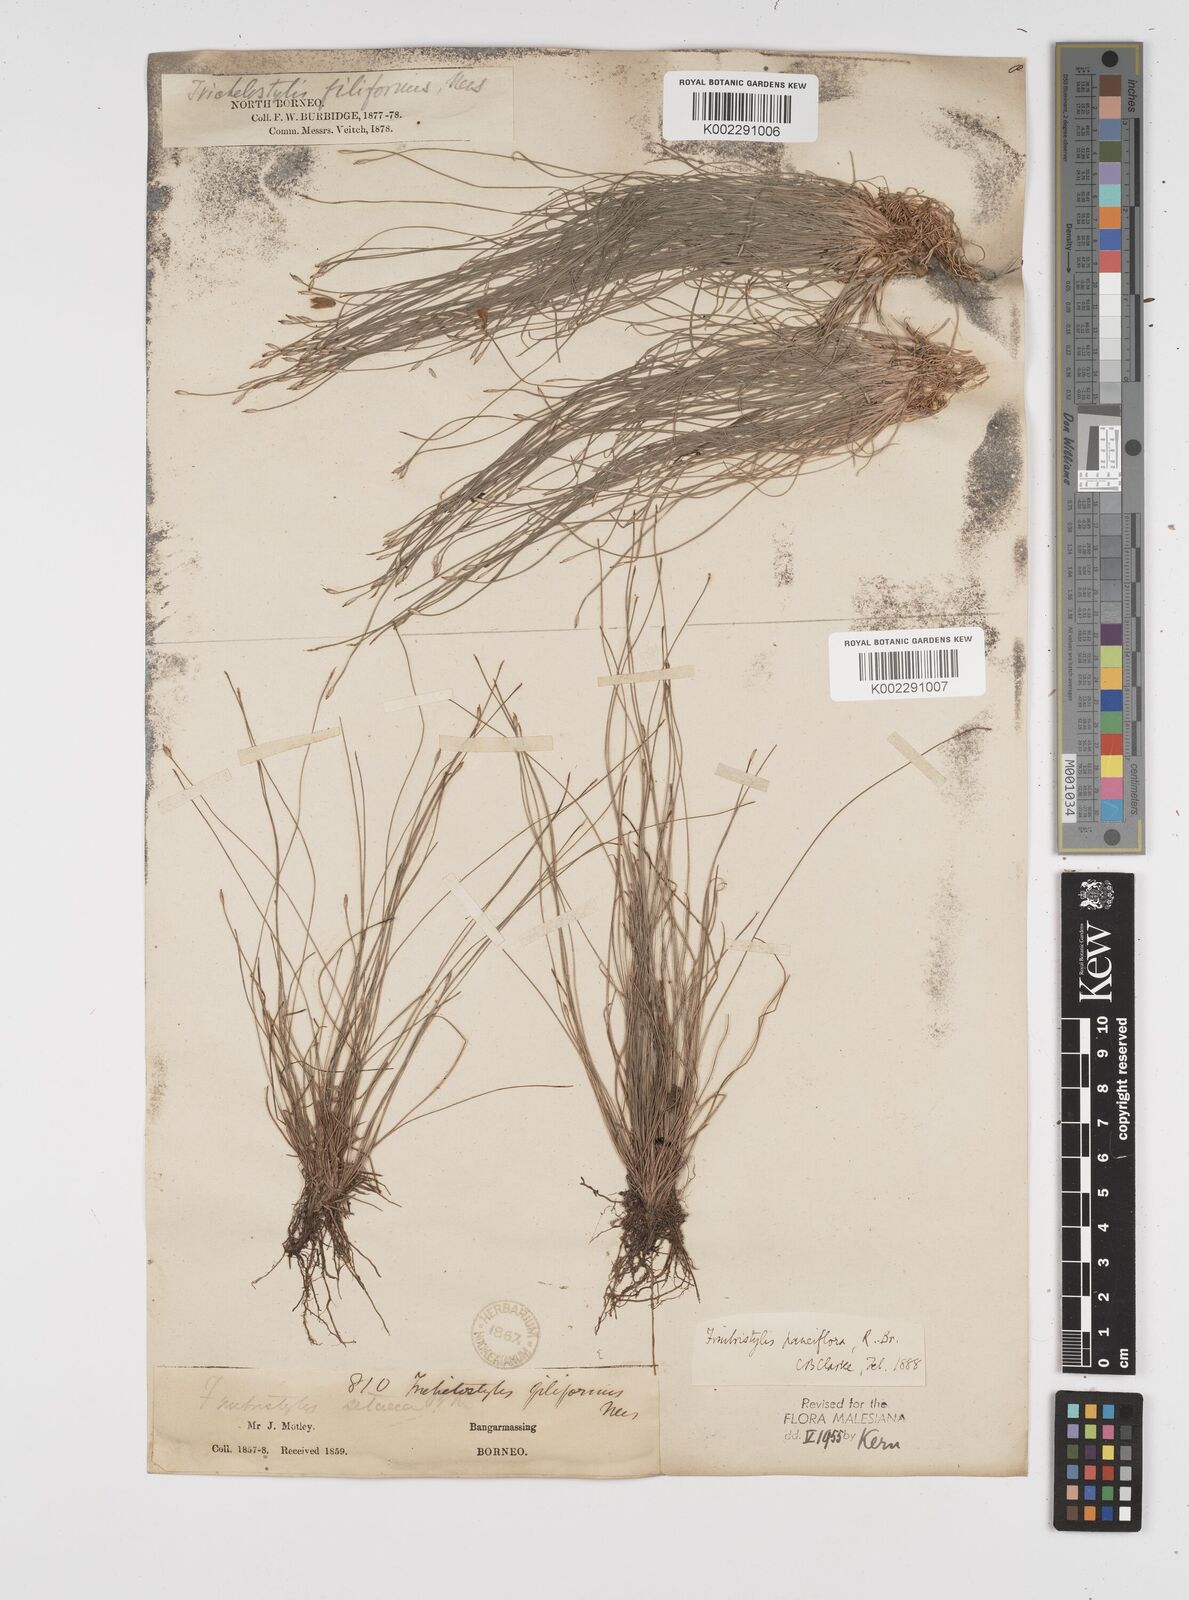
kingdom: Plantae
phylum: Tracheophyta
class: Liliopsida
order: Poales
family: Cyperaceae
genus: Fimbristylis
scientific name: Fimbristylis pauciflora
